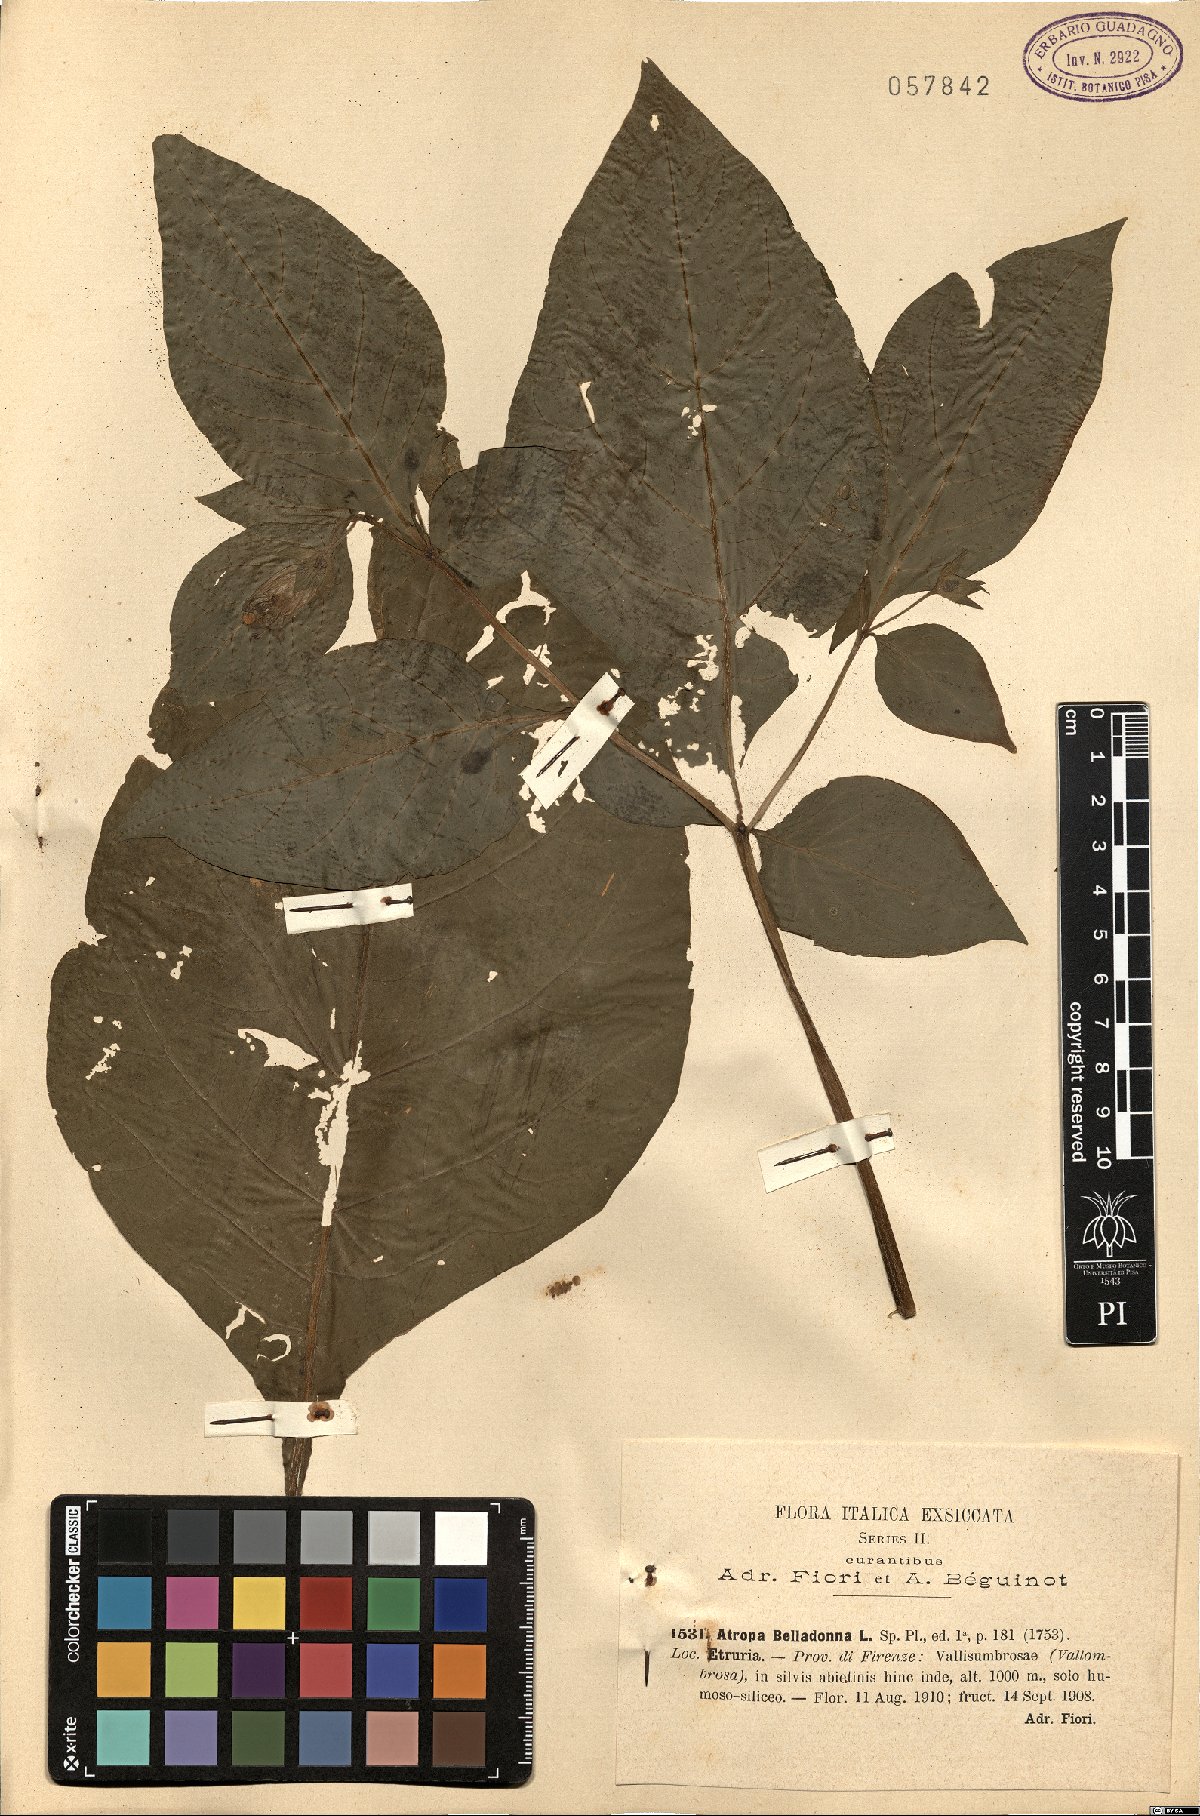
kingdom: Plantae
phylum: Tracheophyta
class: Magnoliopsida
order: Solanales
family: Solanaceae
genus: Atropa
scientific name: Atropa belladonna
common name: Deadly nightshade
